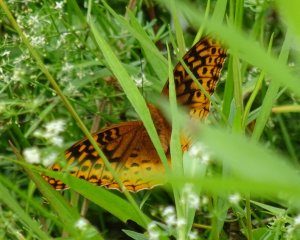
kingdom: Animalia
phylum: Arthropoda
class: Insecta
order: Lepidoptera
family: Nymphalidae
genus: Speyeria
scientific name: Speyeria cybele
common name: Great Spangled Fritillary
